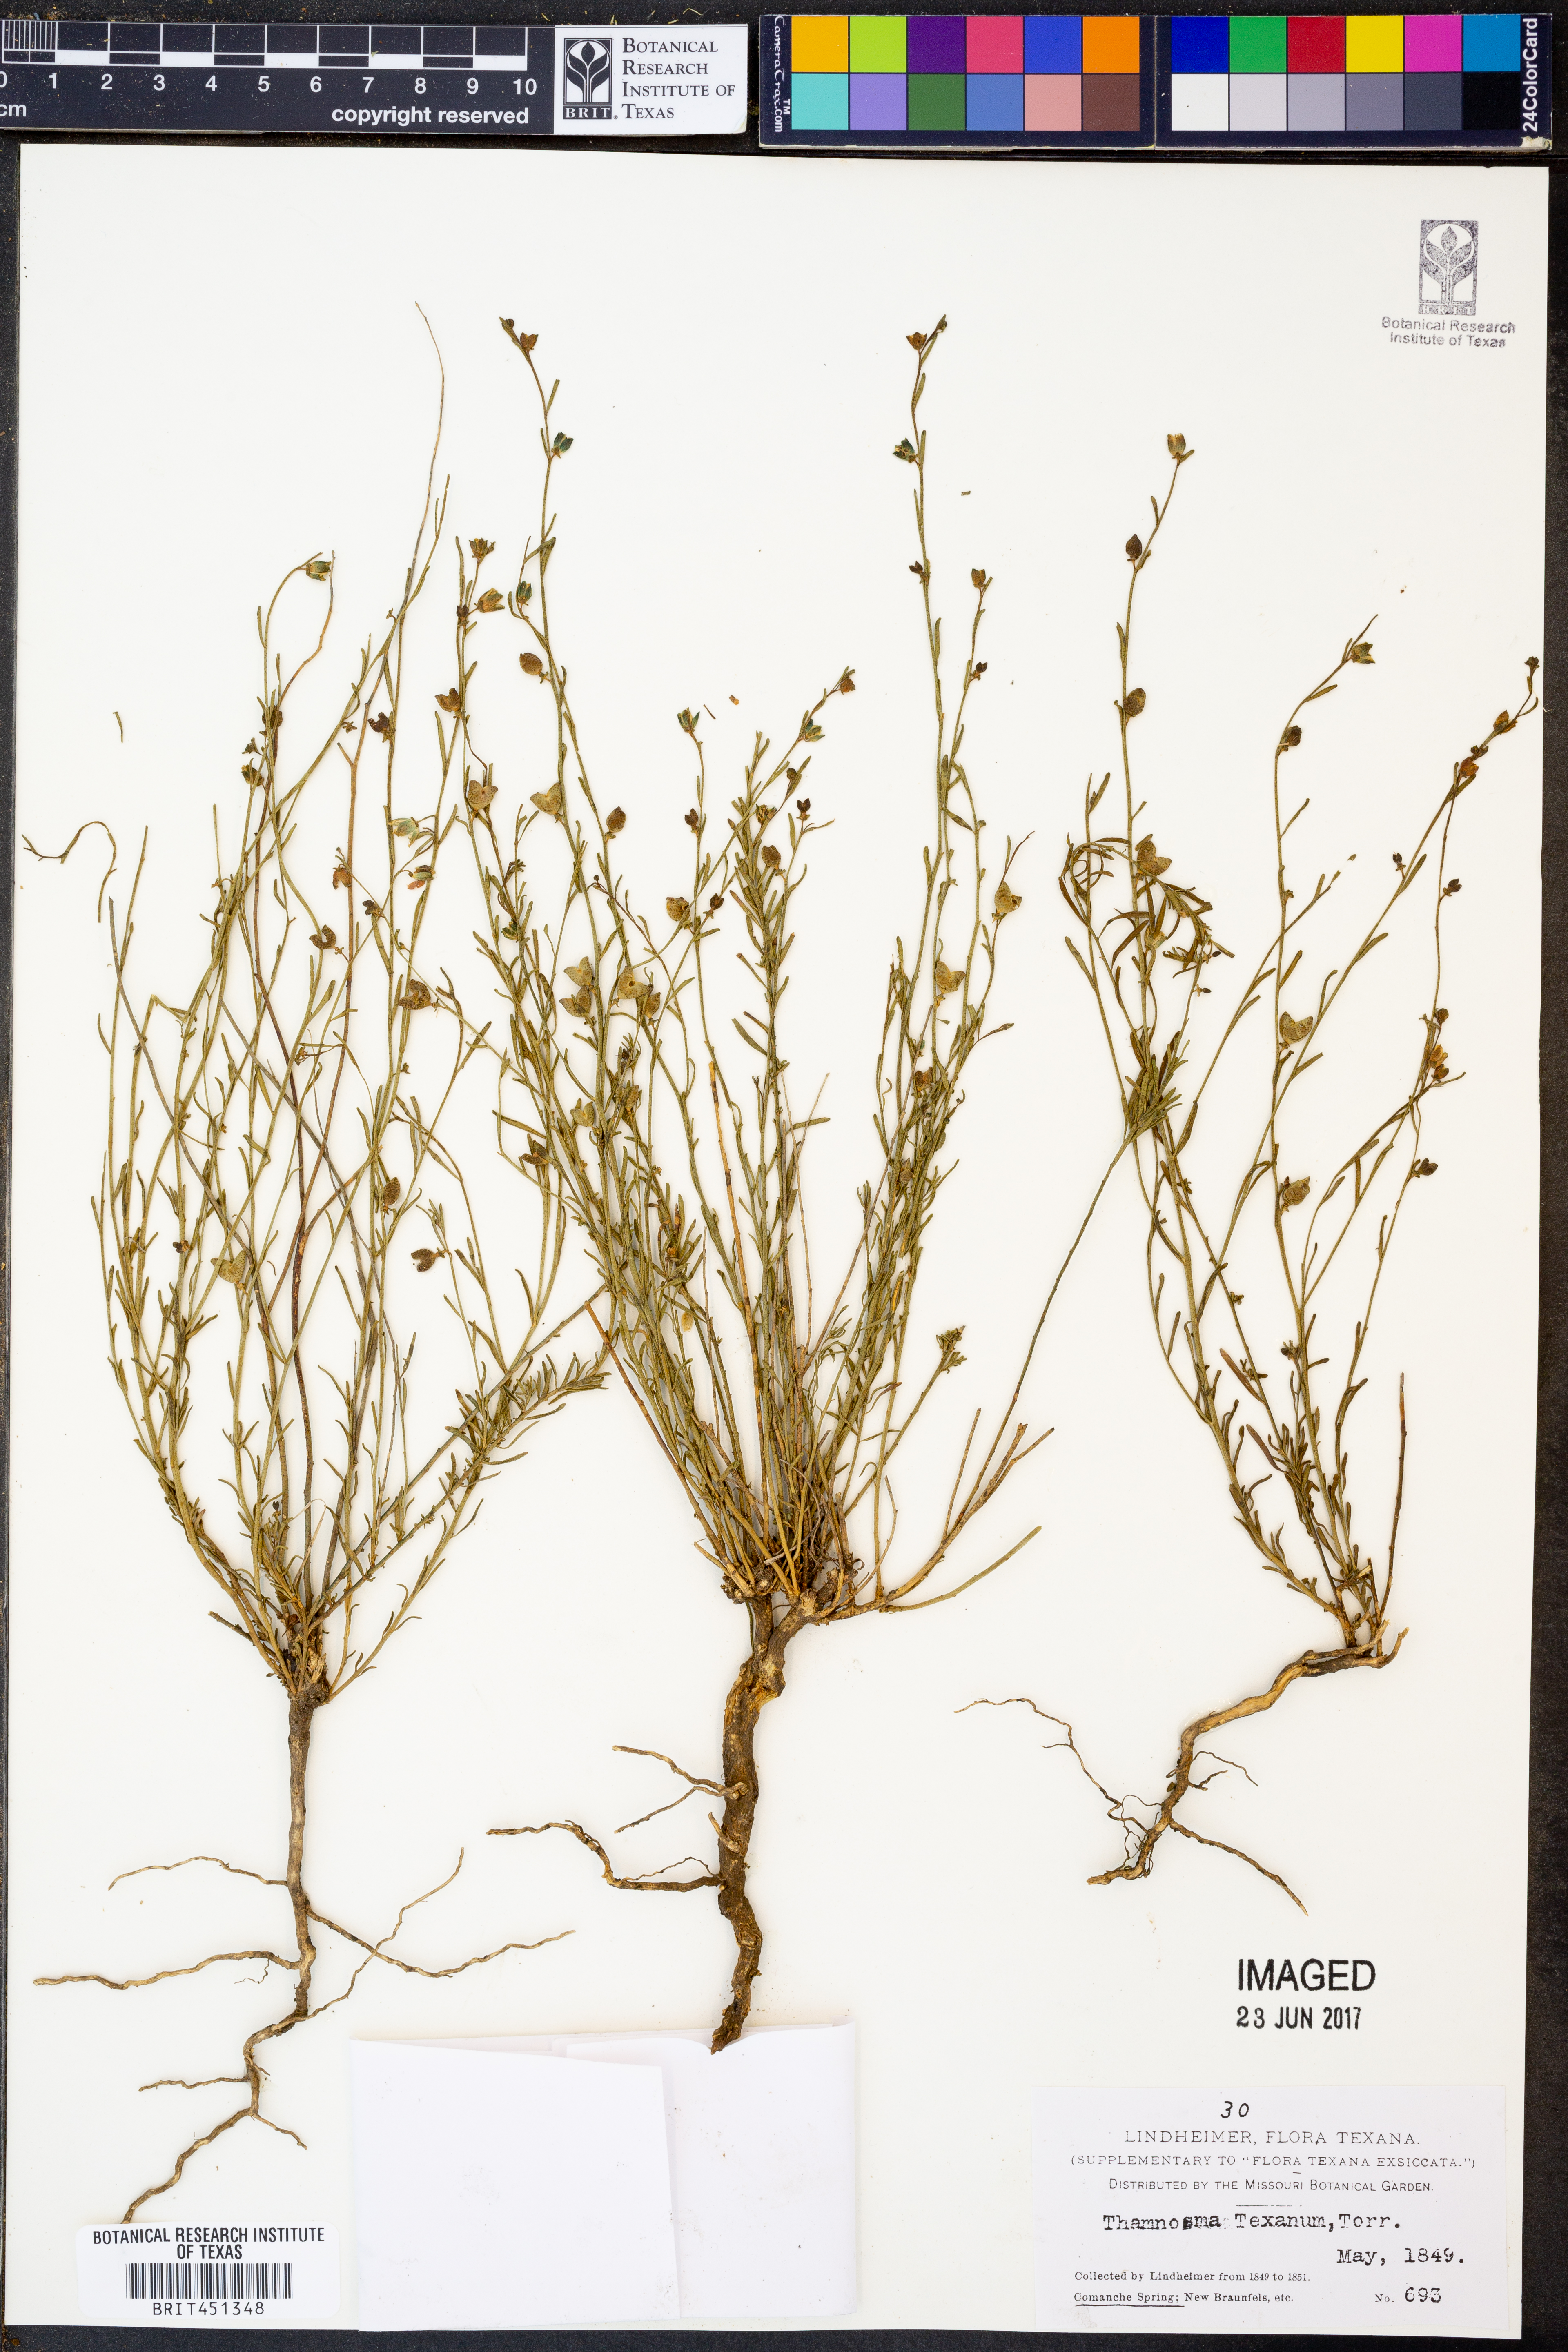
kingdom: Plantae
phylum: Tracheophyta
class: Magnoliopsida
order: Sapindales
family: Rutaceae
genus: Thamnosma
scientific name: Thamnosma texana
